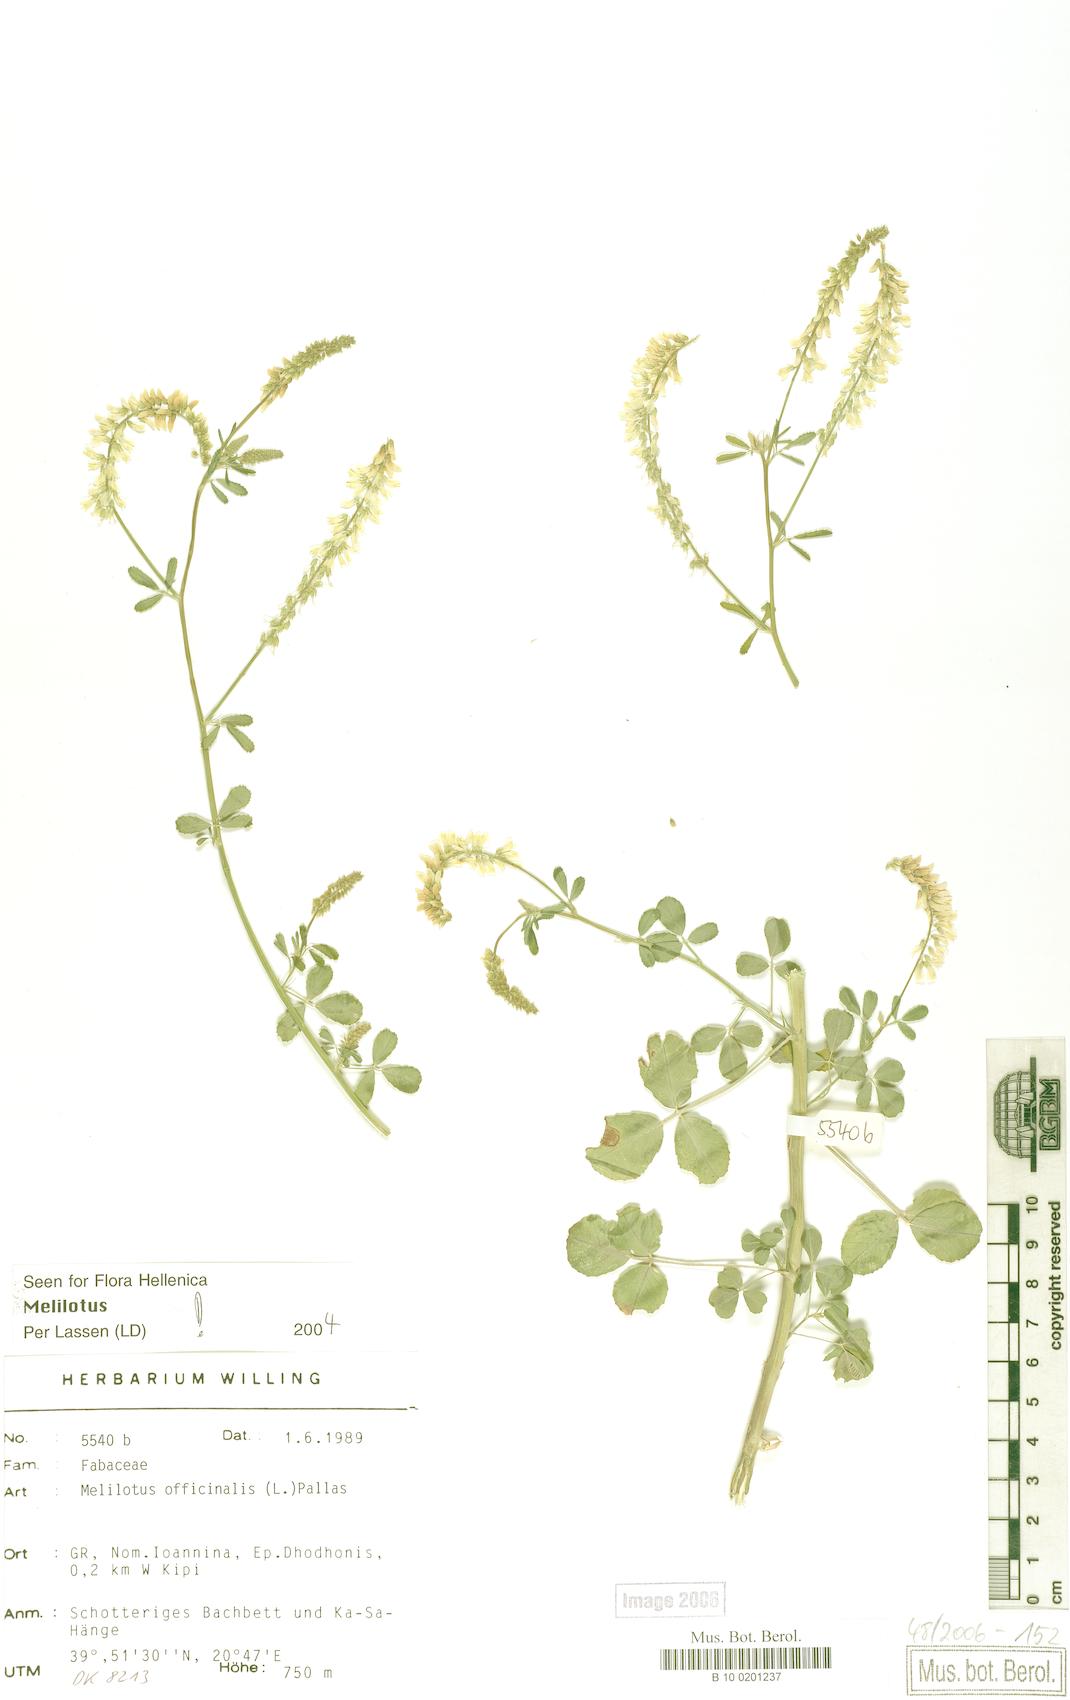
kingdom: Plantae
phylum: Tracheophyta
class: Magnoliopsida
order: Fabales
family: Fabaceae
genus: Melilotus
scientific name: Melilotus officinalis
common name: Sweetclover
